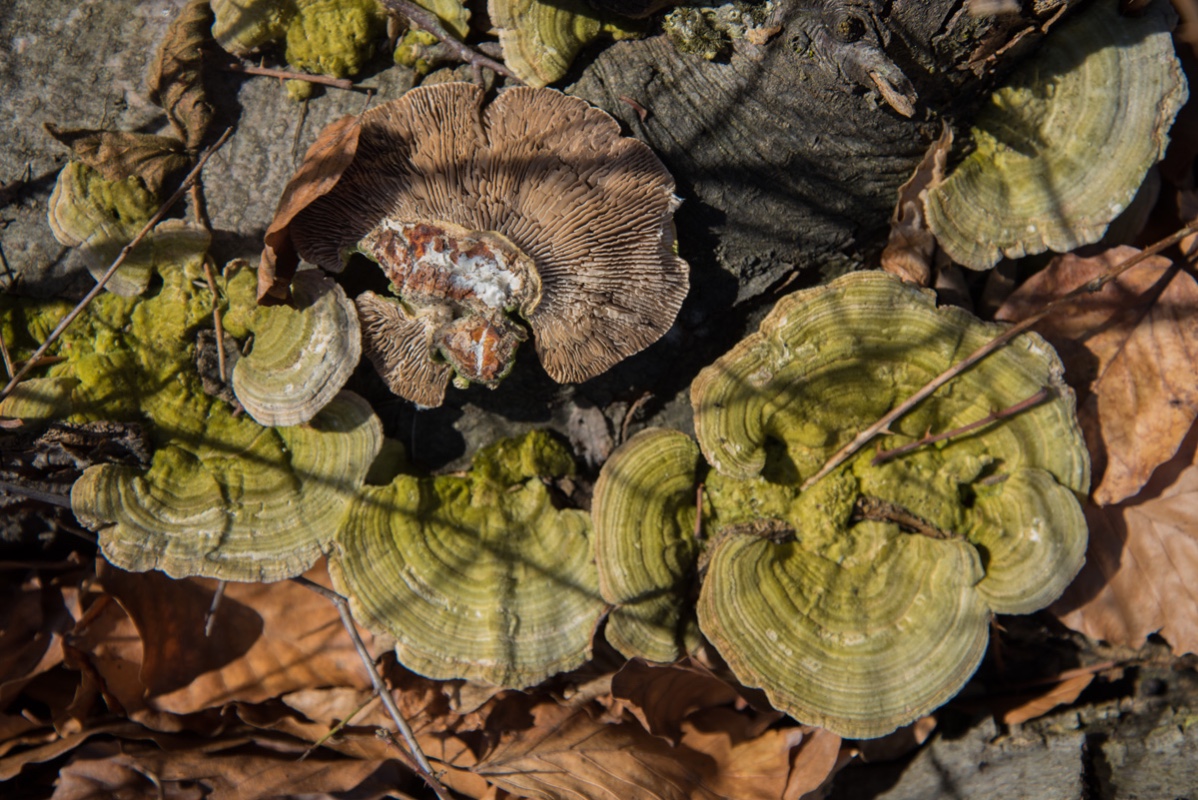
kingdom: Fungi
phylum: Basidiomycota
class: Agaricomycetes
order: Polyporales
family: Polyporaceae
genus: Lenzites
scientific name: Lenzites betulinus
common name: birke-læderporesvamp
